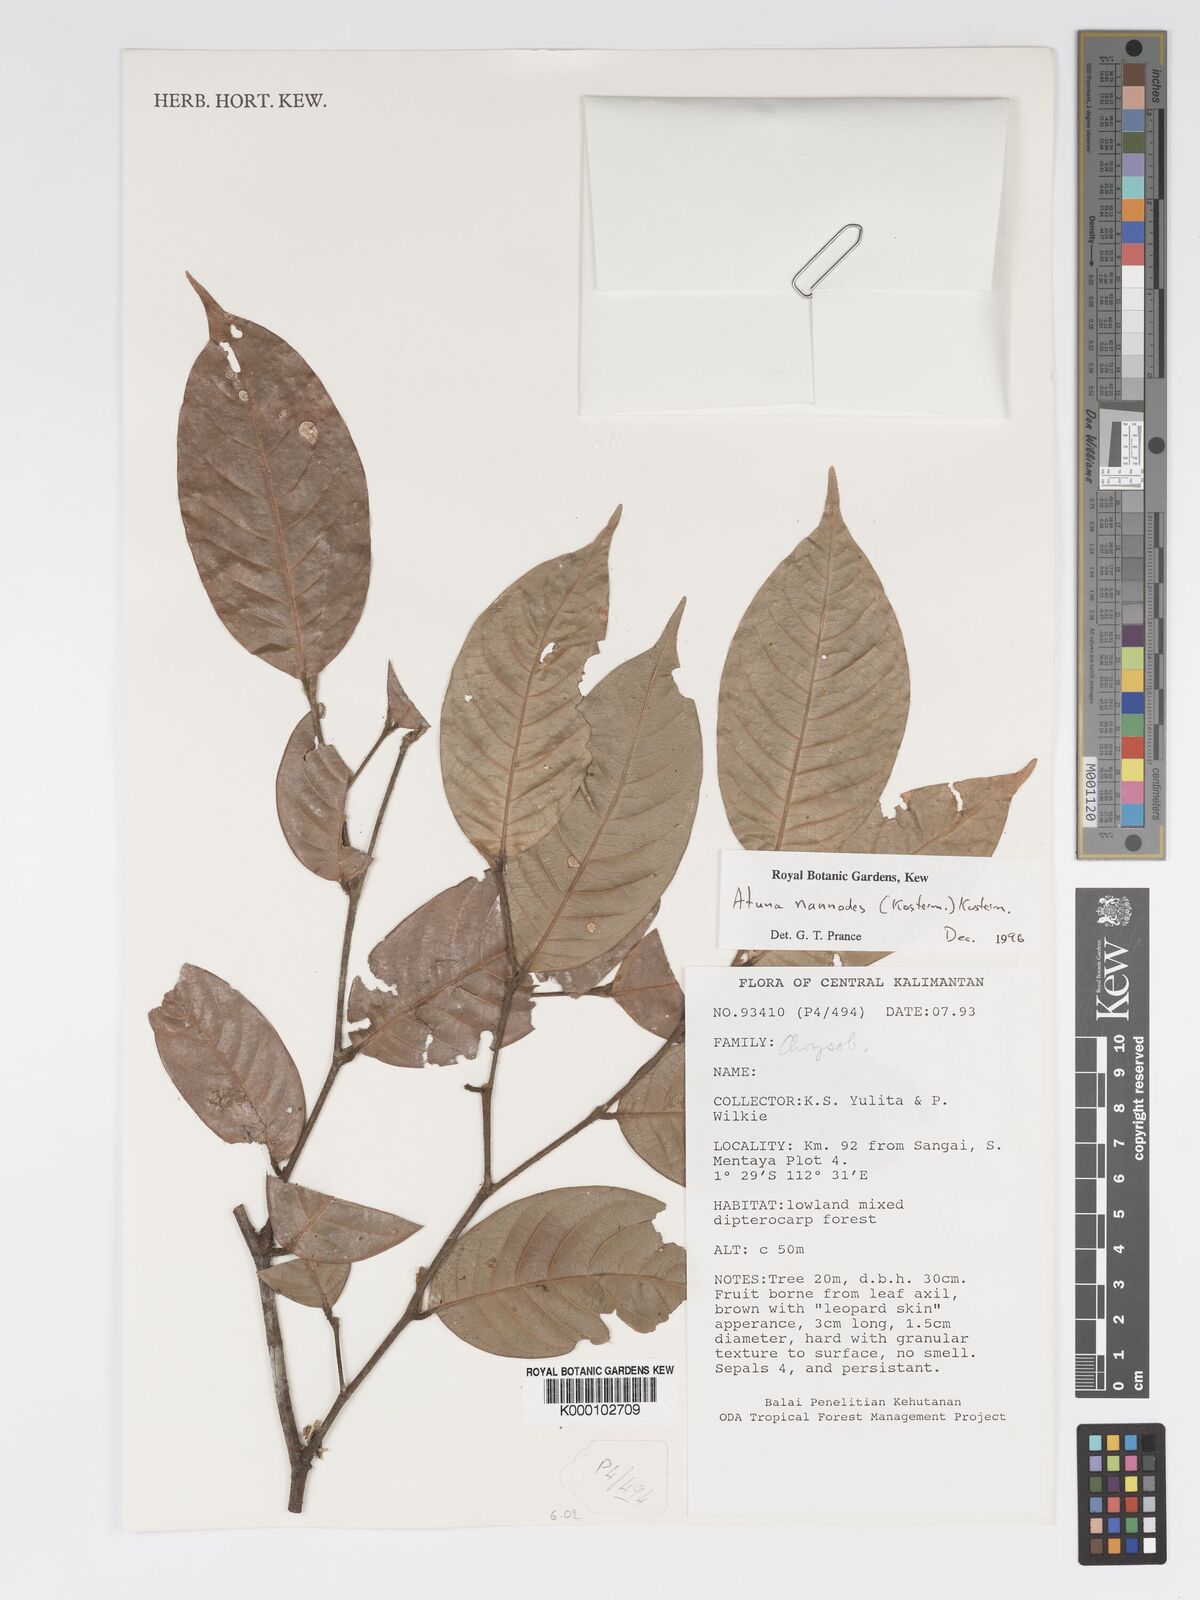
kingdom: Plantae
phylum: Tracheophyta
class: Magnoliopsida
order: Malpighiales
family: Chrysobalanaceae
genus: Atuna
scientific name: Atuna nannodes
